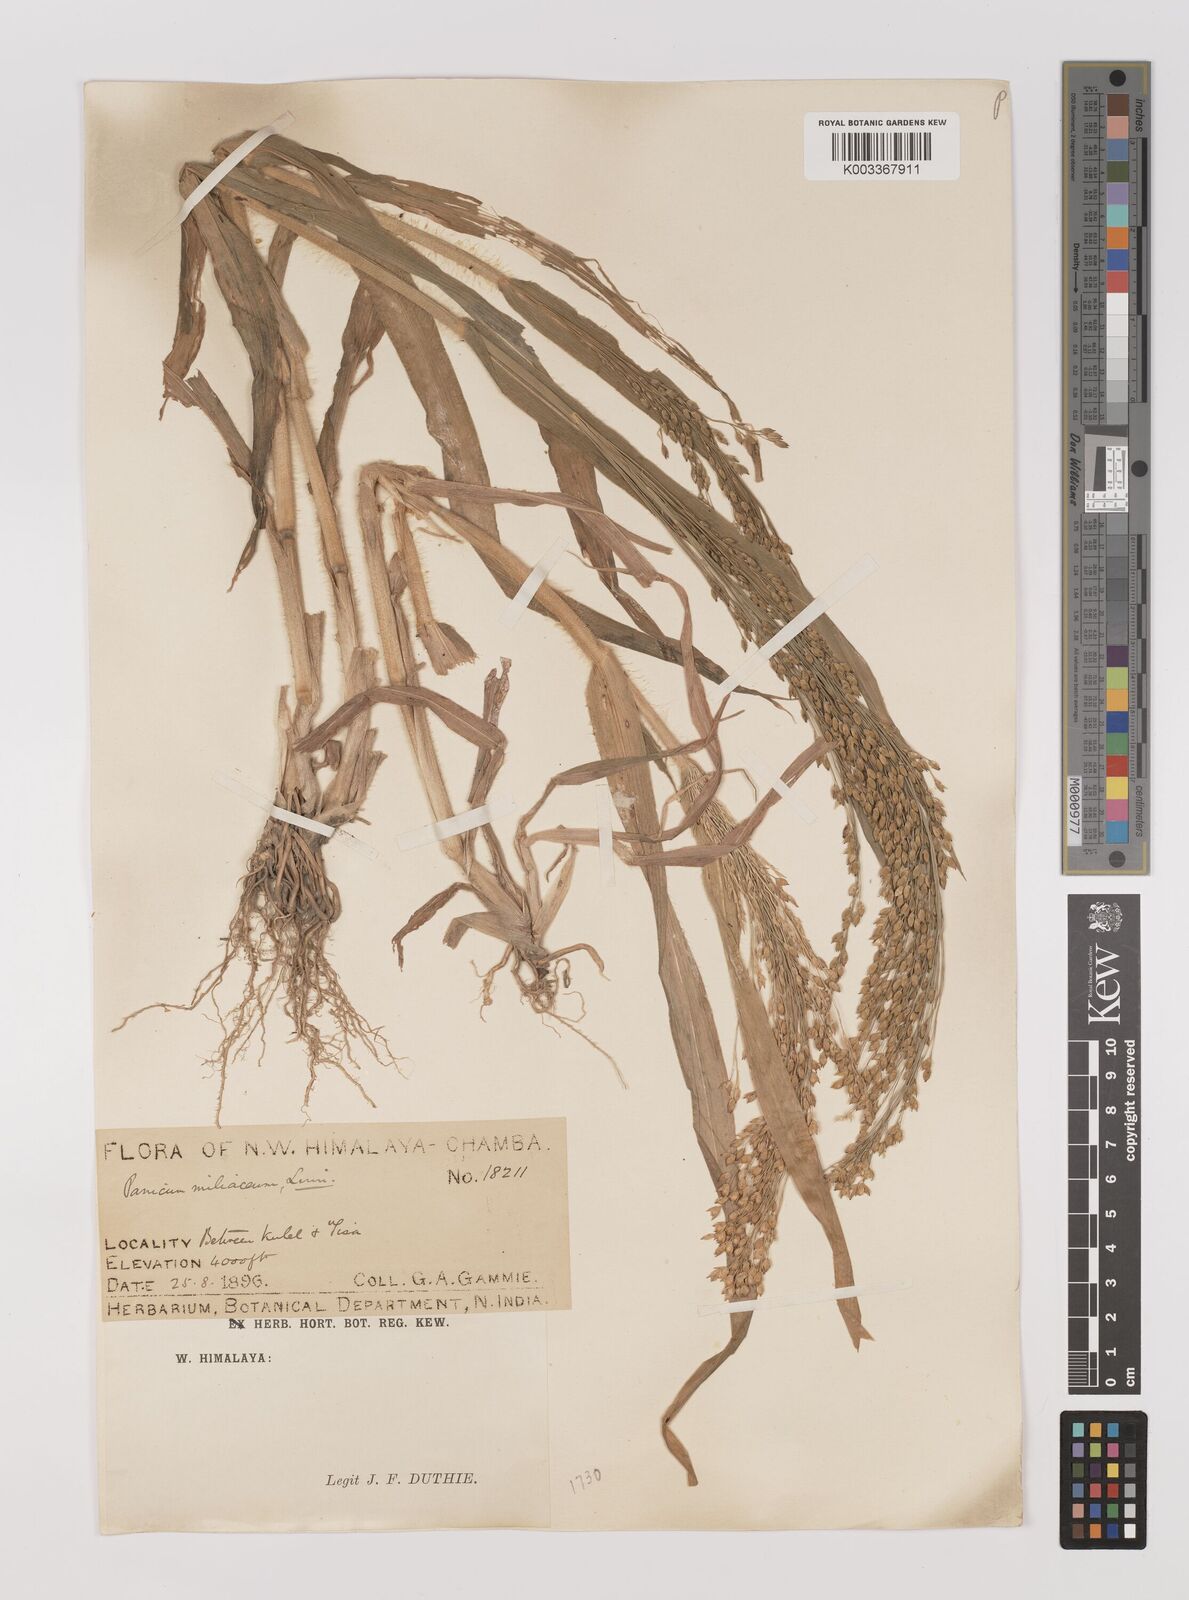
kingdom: Plantae
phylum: Tracheophyta
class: Liliopsida
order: Poales
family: Poaceae
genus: Panicum
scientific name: Panicum miliaceum
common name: Common millet
